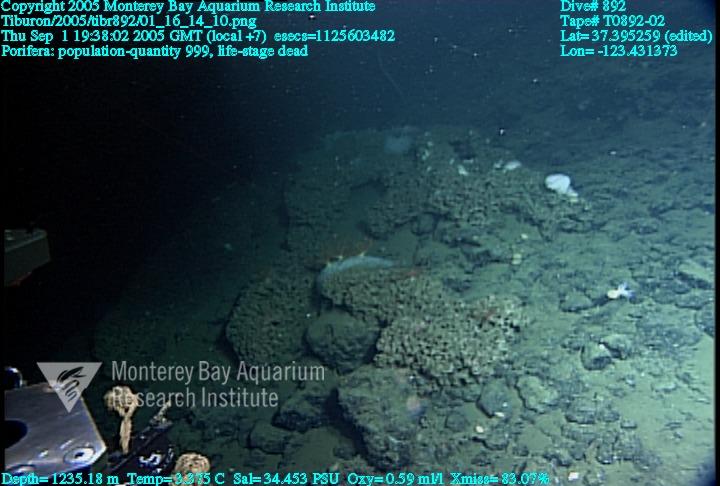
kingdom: Animalia
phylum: Porifera
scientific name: Porifera
